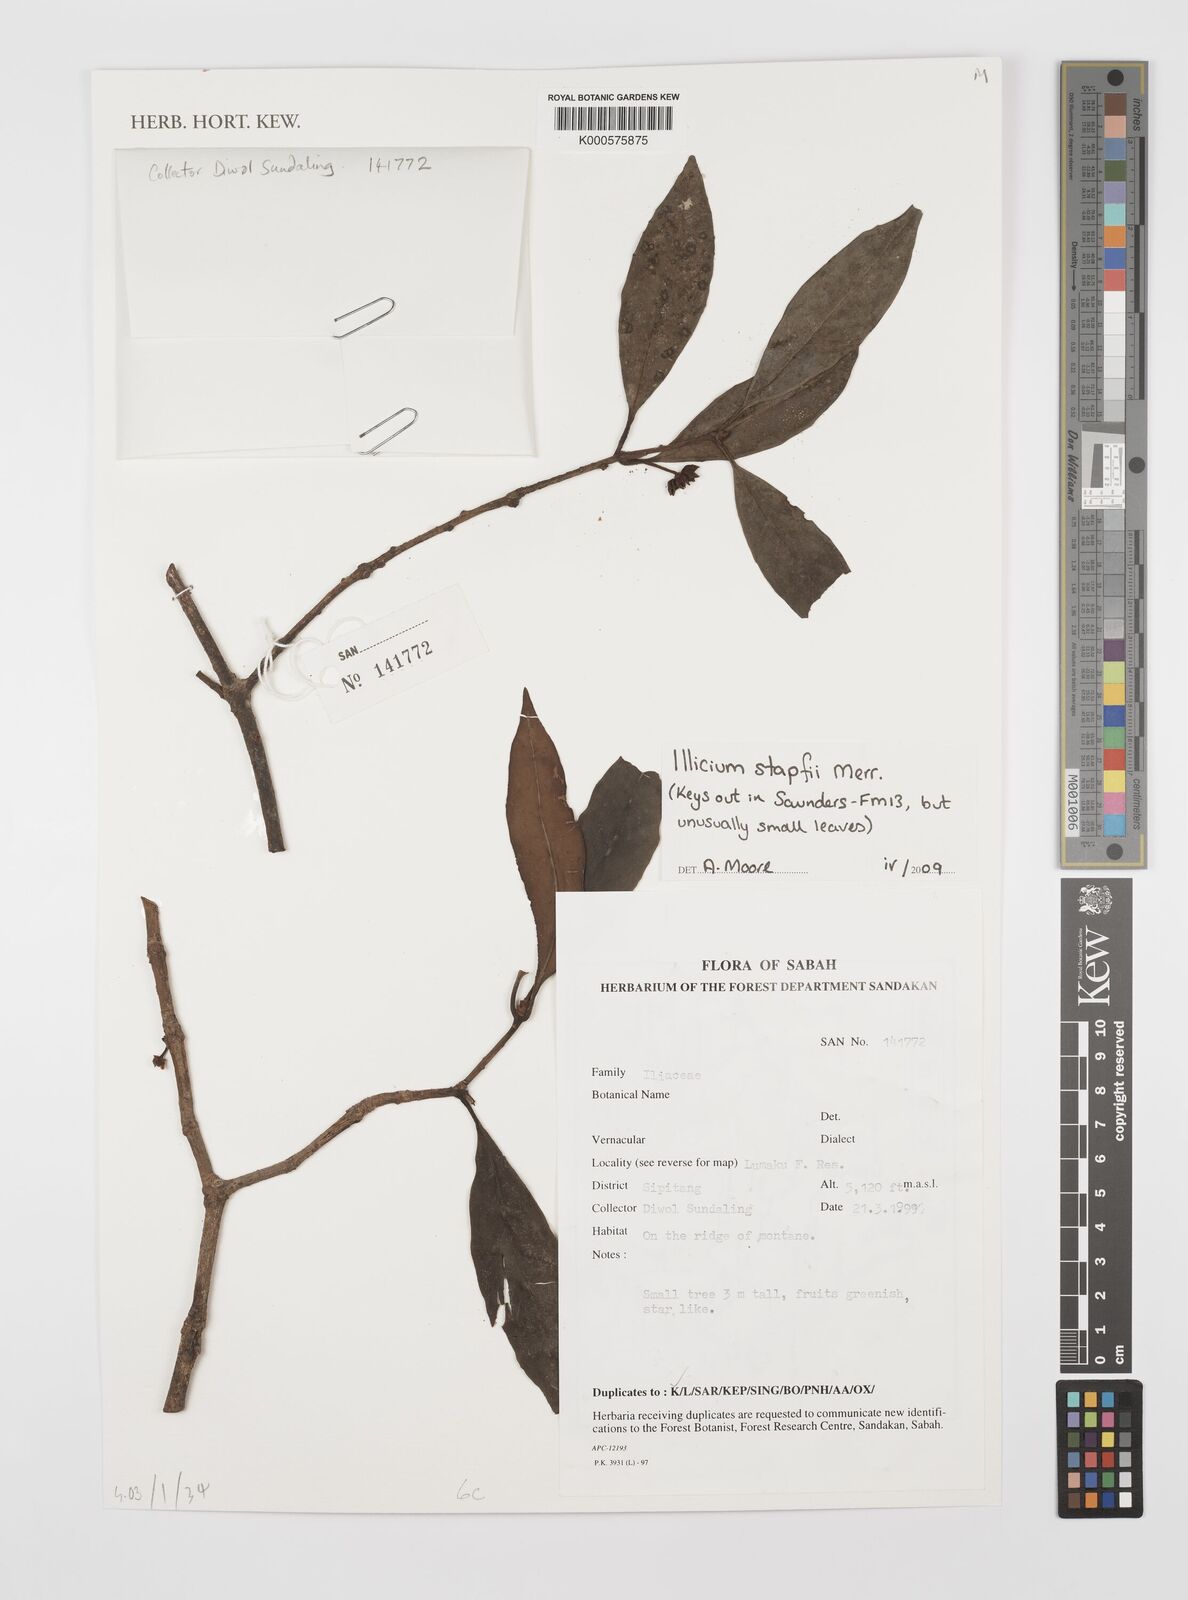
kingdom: Plantae
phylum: Tracheophyta
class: Magnoliopsida
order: Austrobaileyales
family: Schisandraceae
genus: Illicium
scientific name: Illicium stapfii
